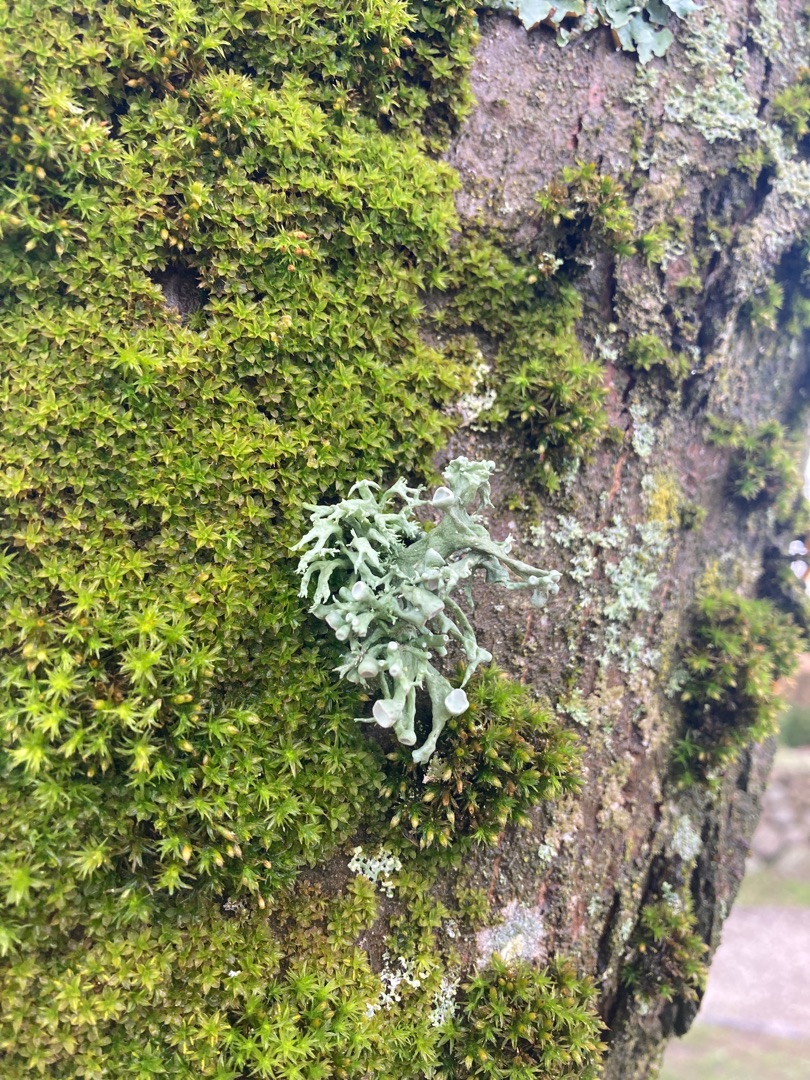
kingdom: Fungi
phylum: Ascomycota
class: Lecanoromycetes
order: Lecanorales
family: Ramalinaceae
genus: Ramalina
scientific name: Ramalina fastigiata
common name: Tue-grenlav
